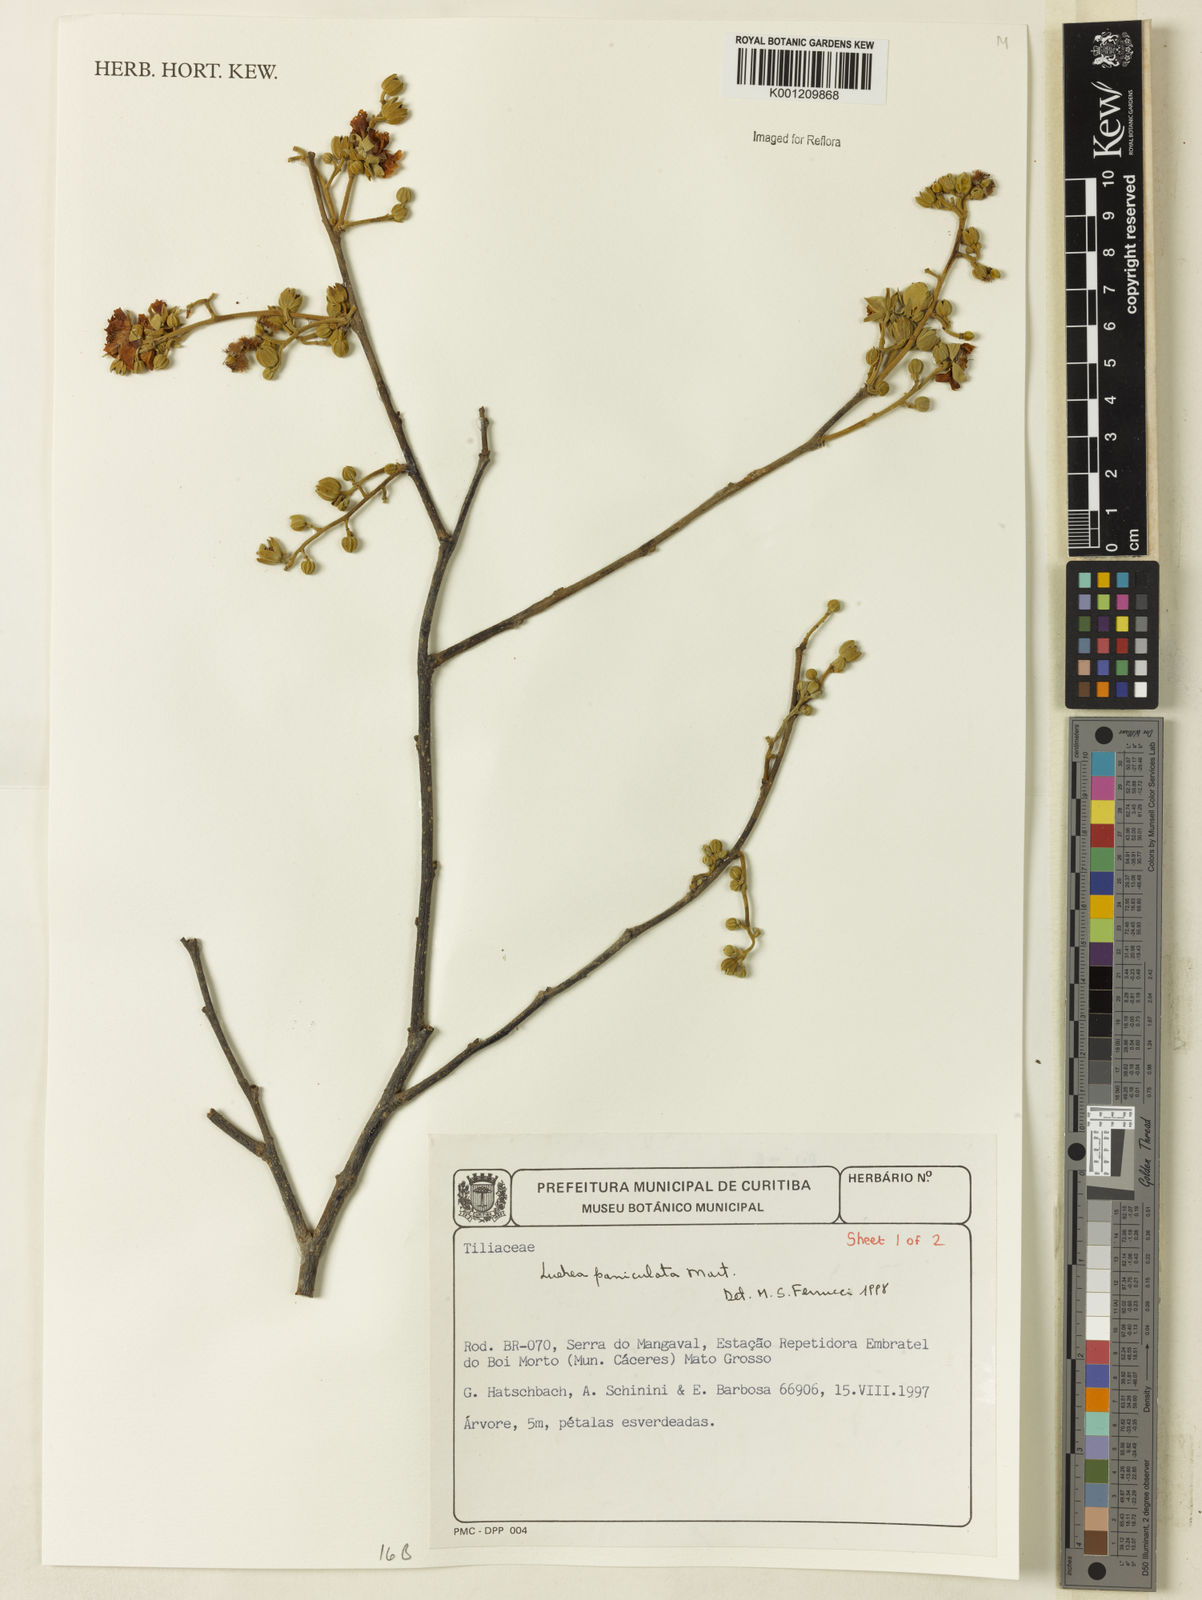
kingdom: Plantae
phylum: Tracheophyta
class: Magnoliopsida
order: Malvales
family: Malvaceae
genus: Luehea
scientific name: Luehea paniculata
